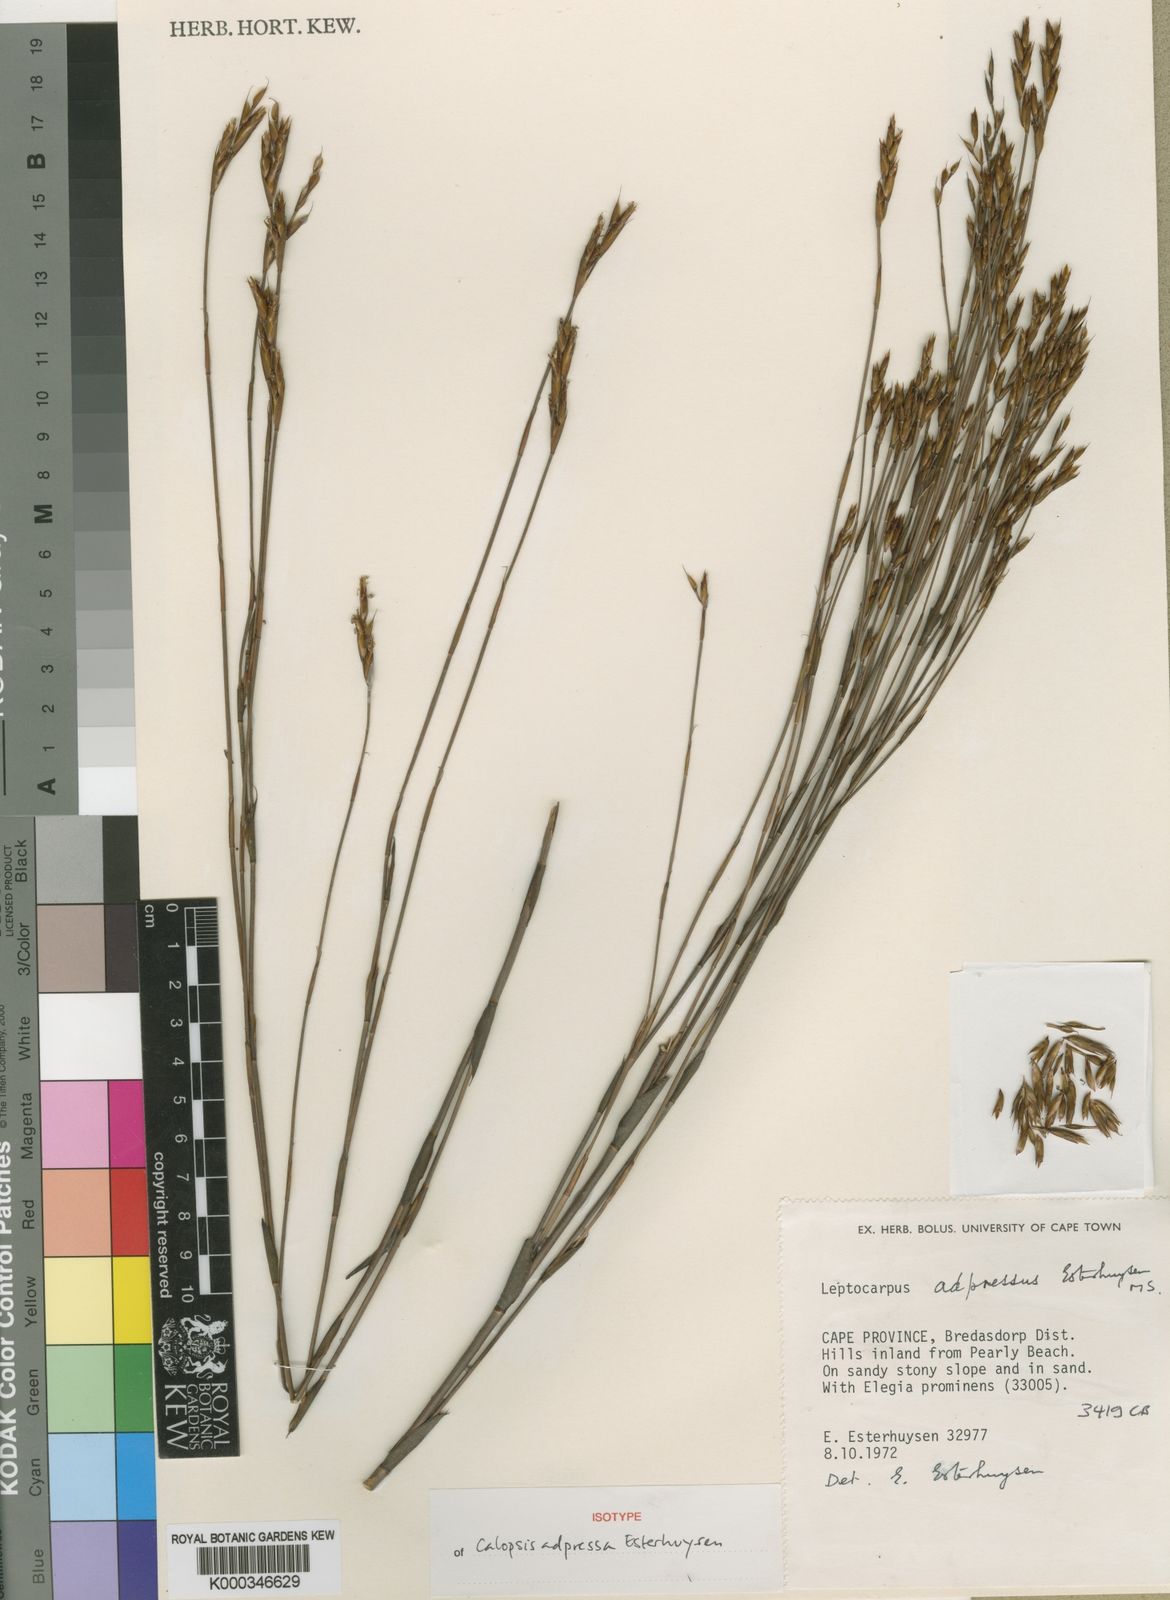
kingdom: Plantae
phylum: Tracheophyta
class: Liliopsida
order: Poales
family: Restionaceae
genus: Restio
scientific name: Restio adpressus
